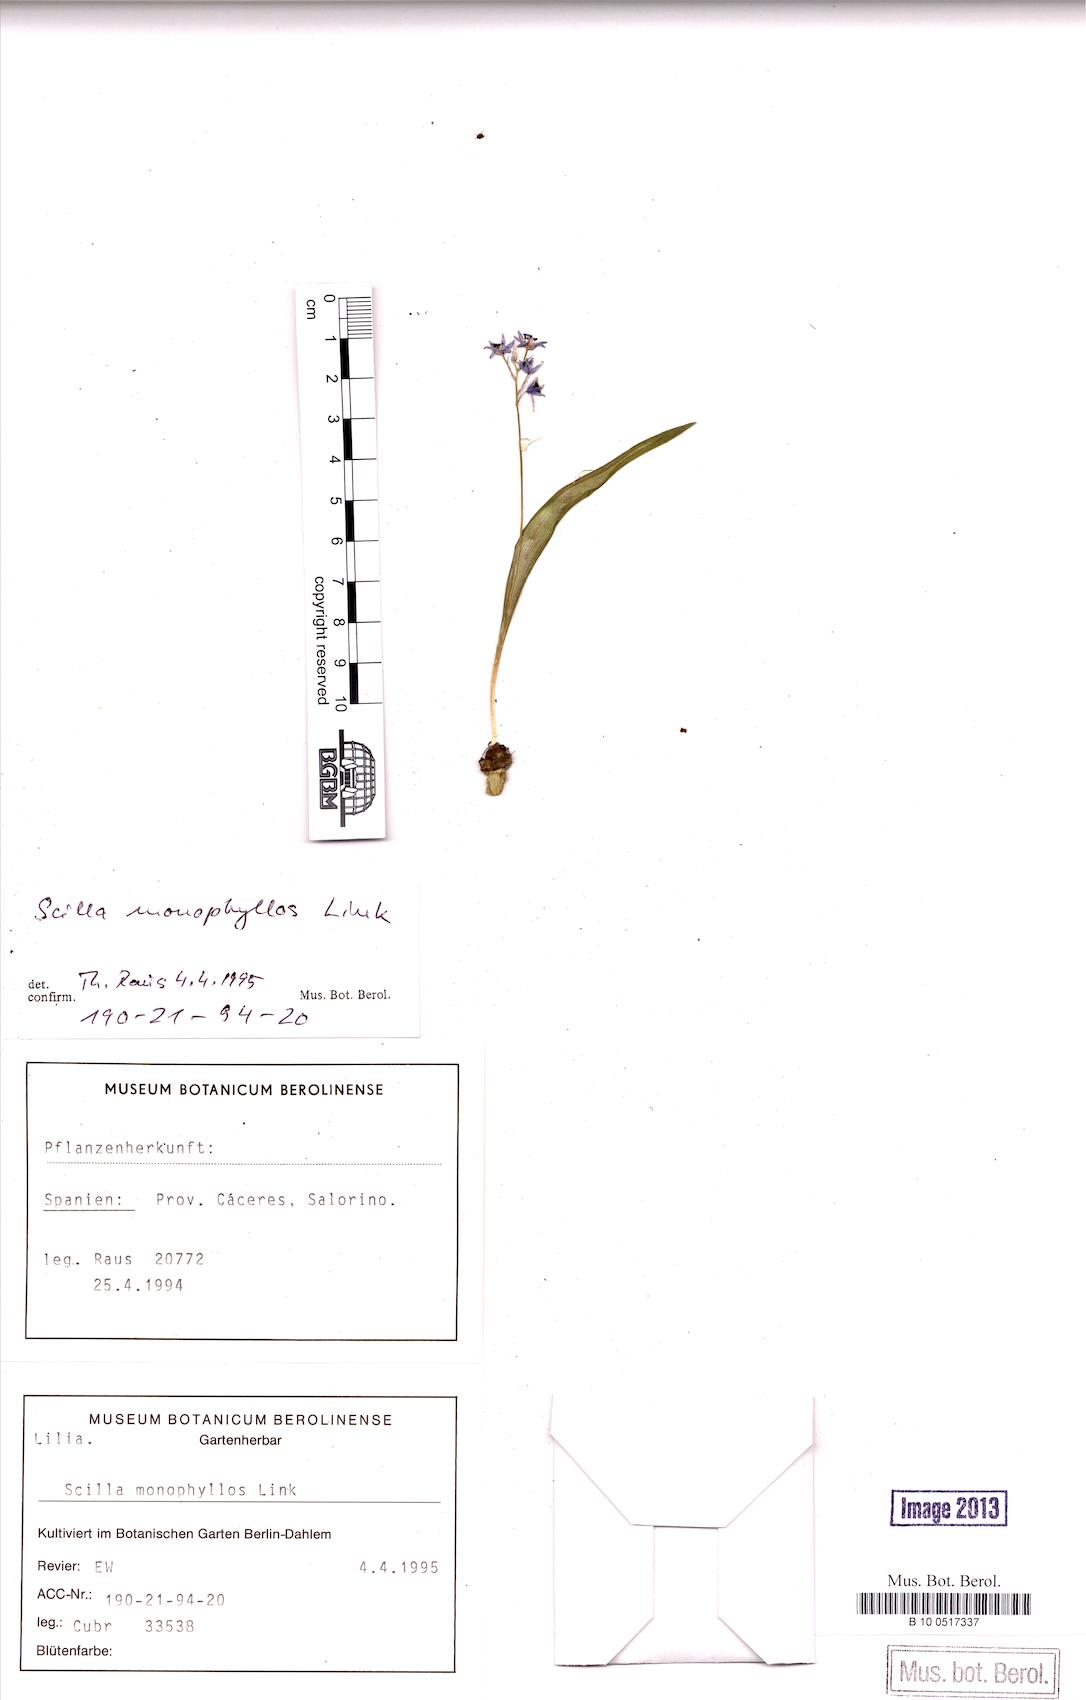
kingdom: Plantae
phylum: Tracheophyta
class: Liliopsida
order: Asparagales
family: Asparagaceae
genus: Scilla
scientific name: Scilla monophyllos
